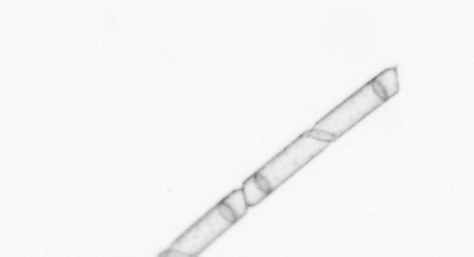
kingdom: Chromista
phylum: Ochrophyta
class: Bacillariophyceae
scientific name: Bacillariophyceae
